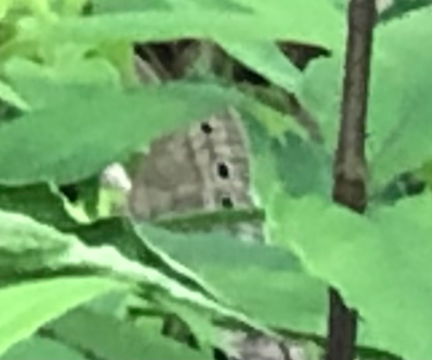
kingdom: Animalia
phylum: Arthropoda
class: Insecta
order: Lepidoptera
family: Nymphalidae
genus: Euptychia
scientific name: Euptychia cymela
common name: Little Wood Satyr
